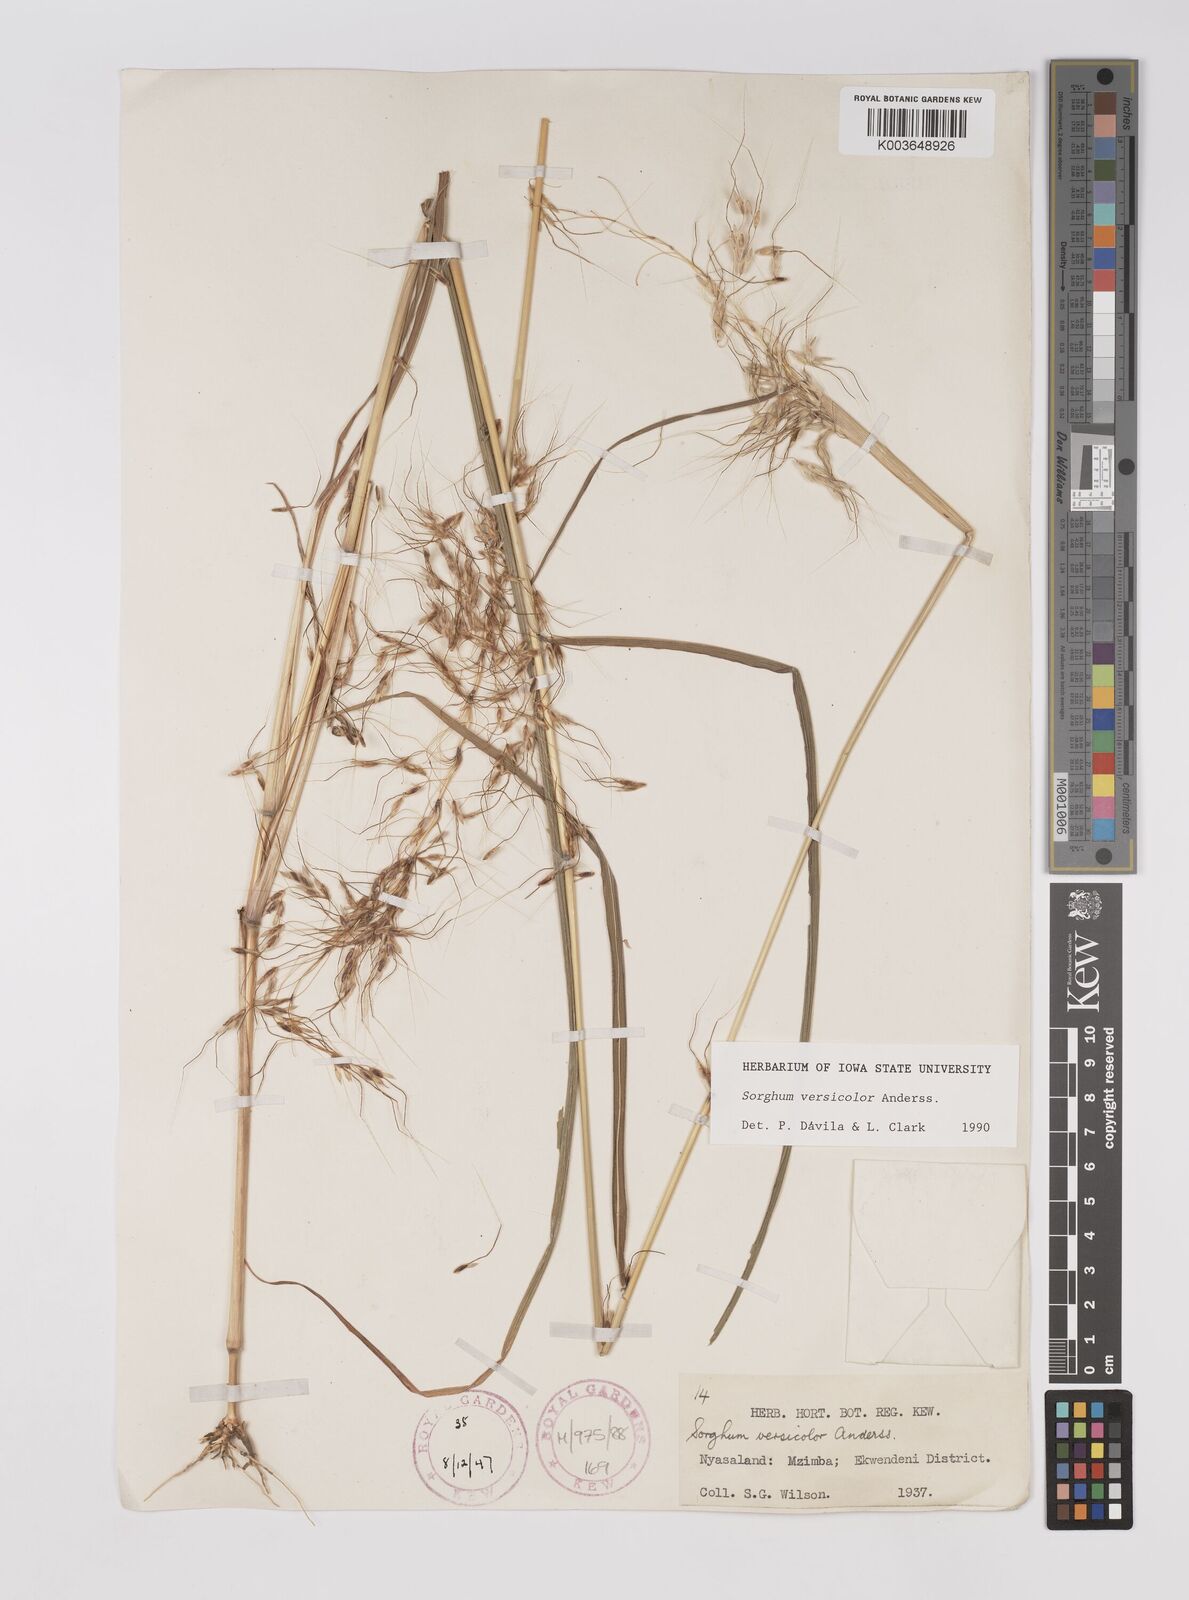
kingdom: Plantae
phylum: Tracheophyta
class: Liliopsida
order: Poales
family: Poaceae
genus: Sarga
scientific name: Sarga versicolor
